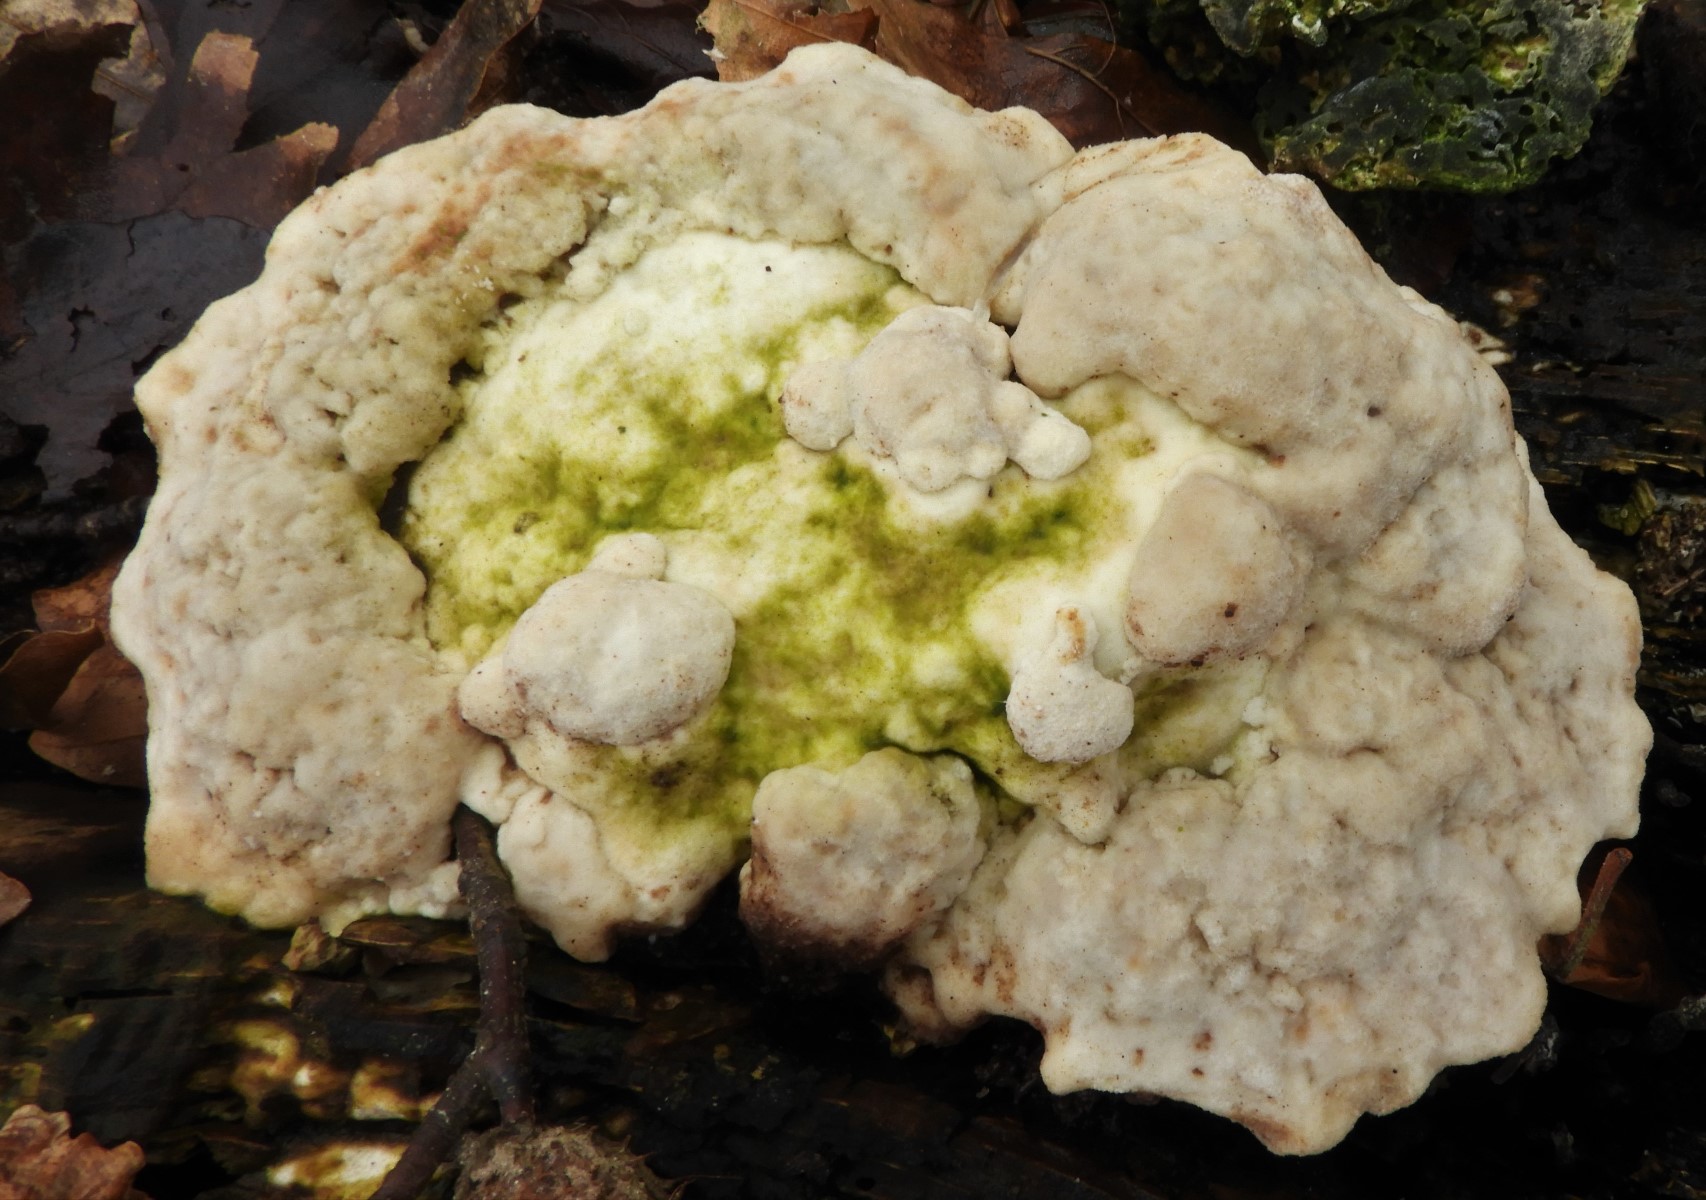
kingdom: Fungi
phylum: Basidiomycota
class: Agaricomycetes
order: Polyporales
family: Polyporaceae
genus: Trametes
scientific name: Trametes gibbosa
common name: puklet læderporesvamp
